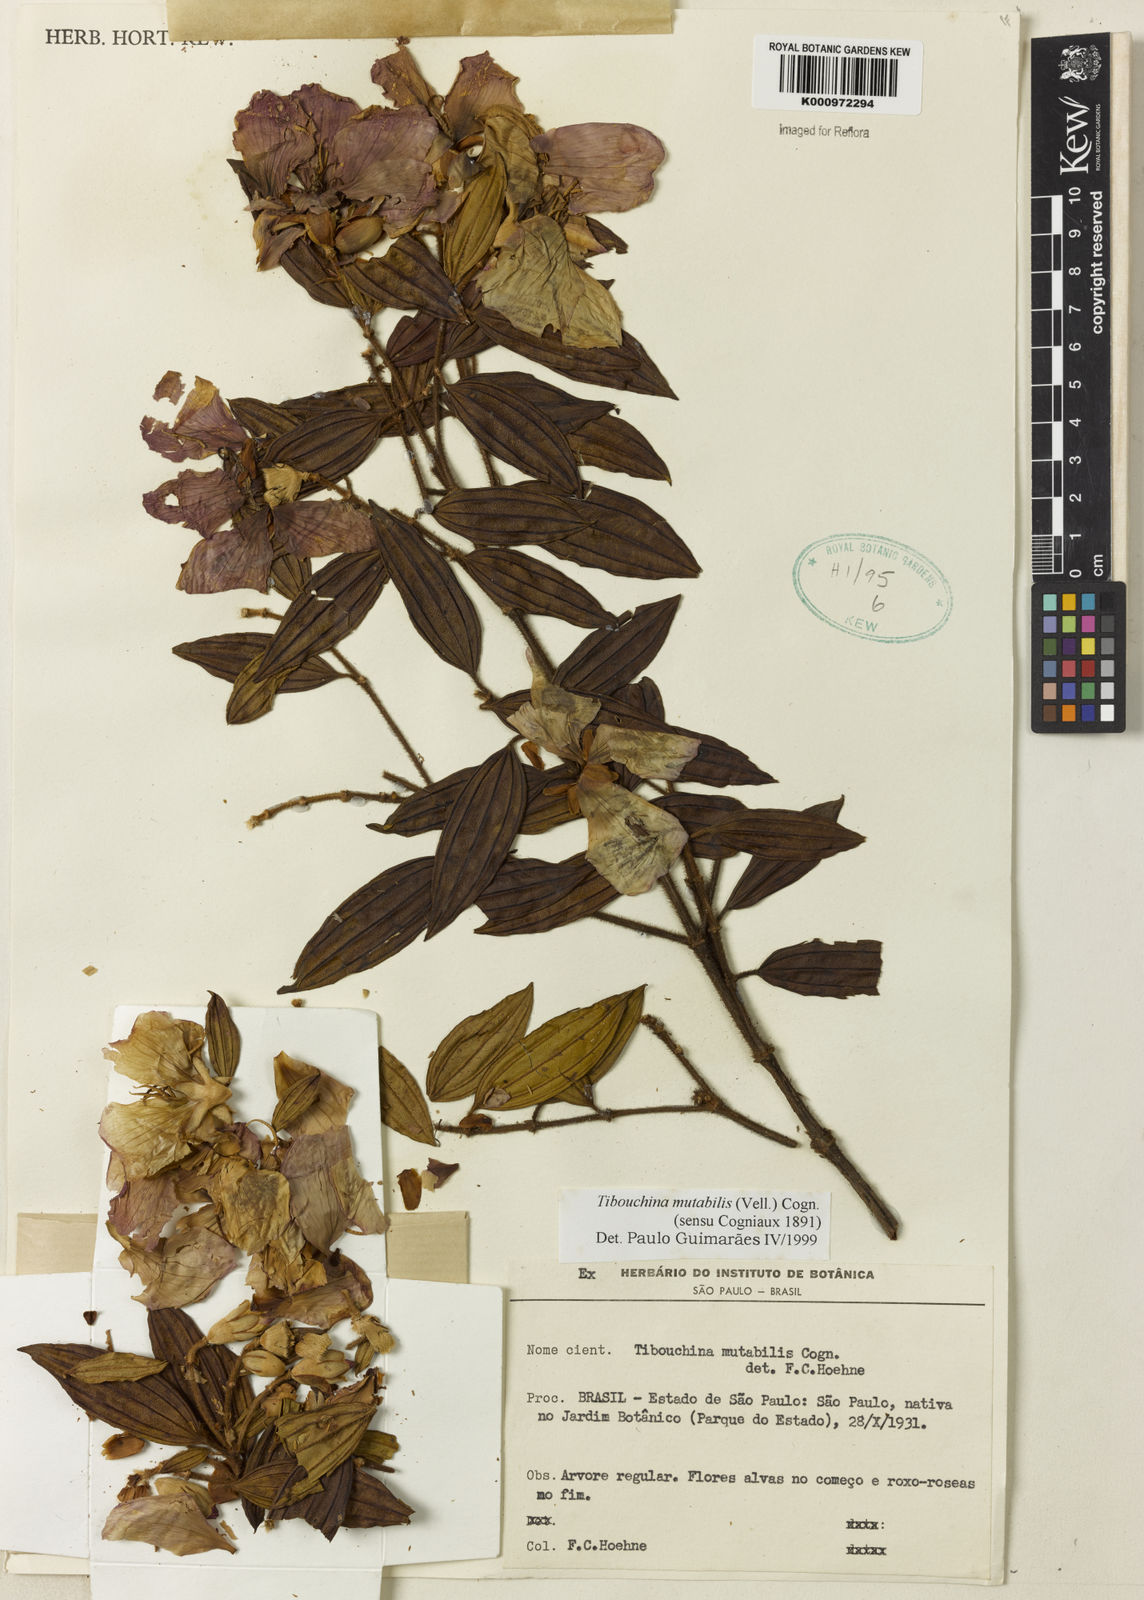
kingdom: Plantae
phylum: Tracheophyta
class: Magnoliopsida
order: Myrtales
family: Melastomataceae
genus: Pleroma
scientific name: Pleroma mutabile
